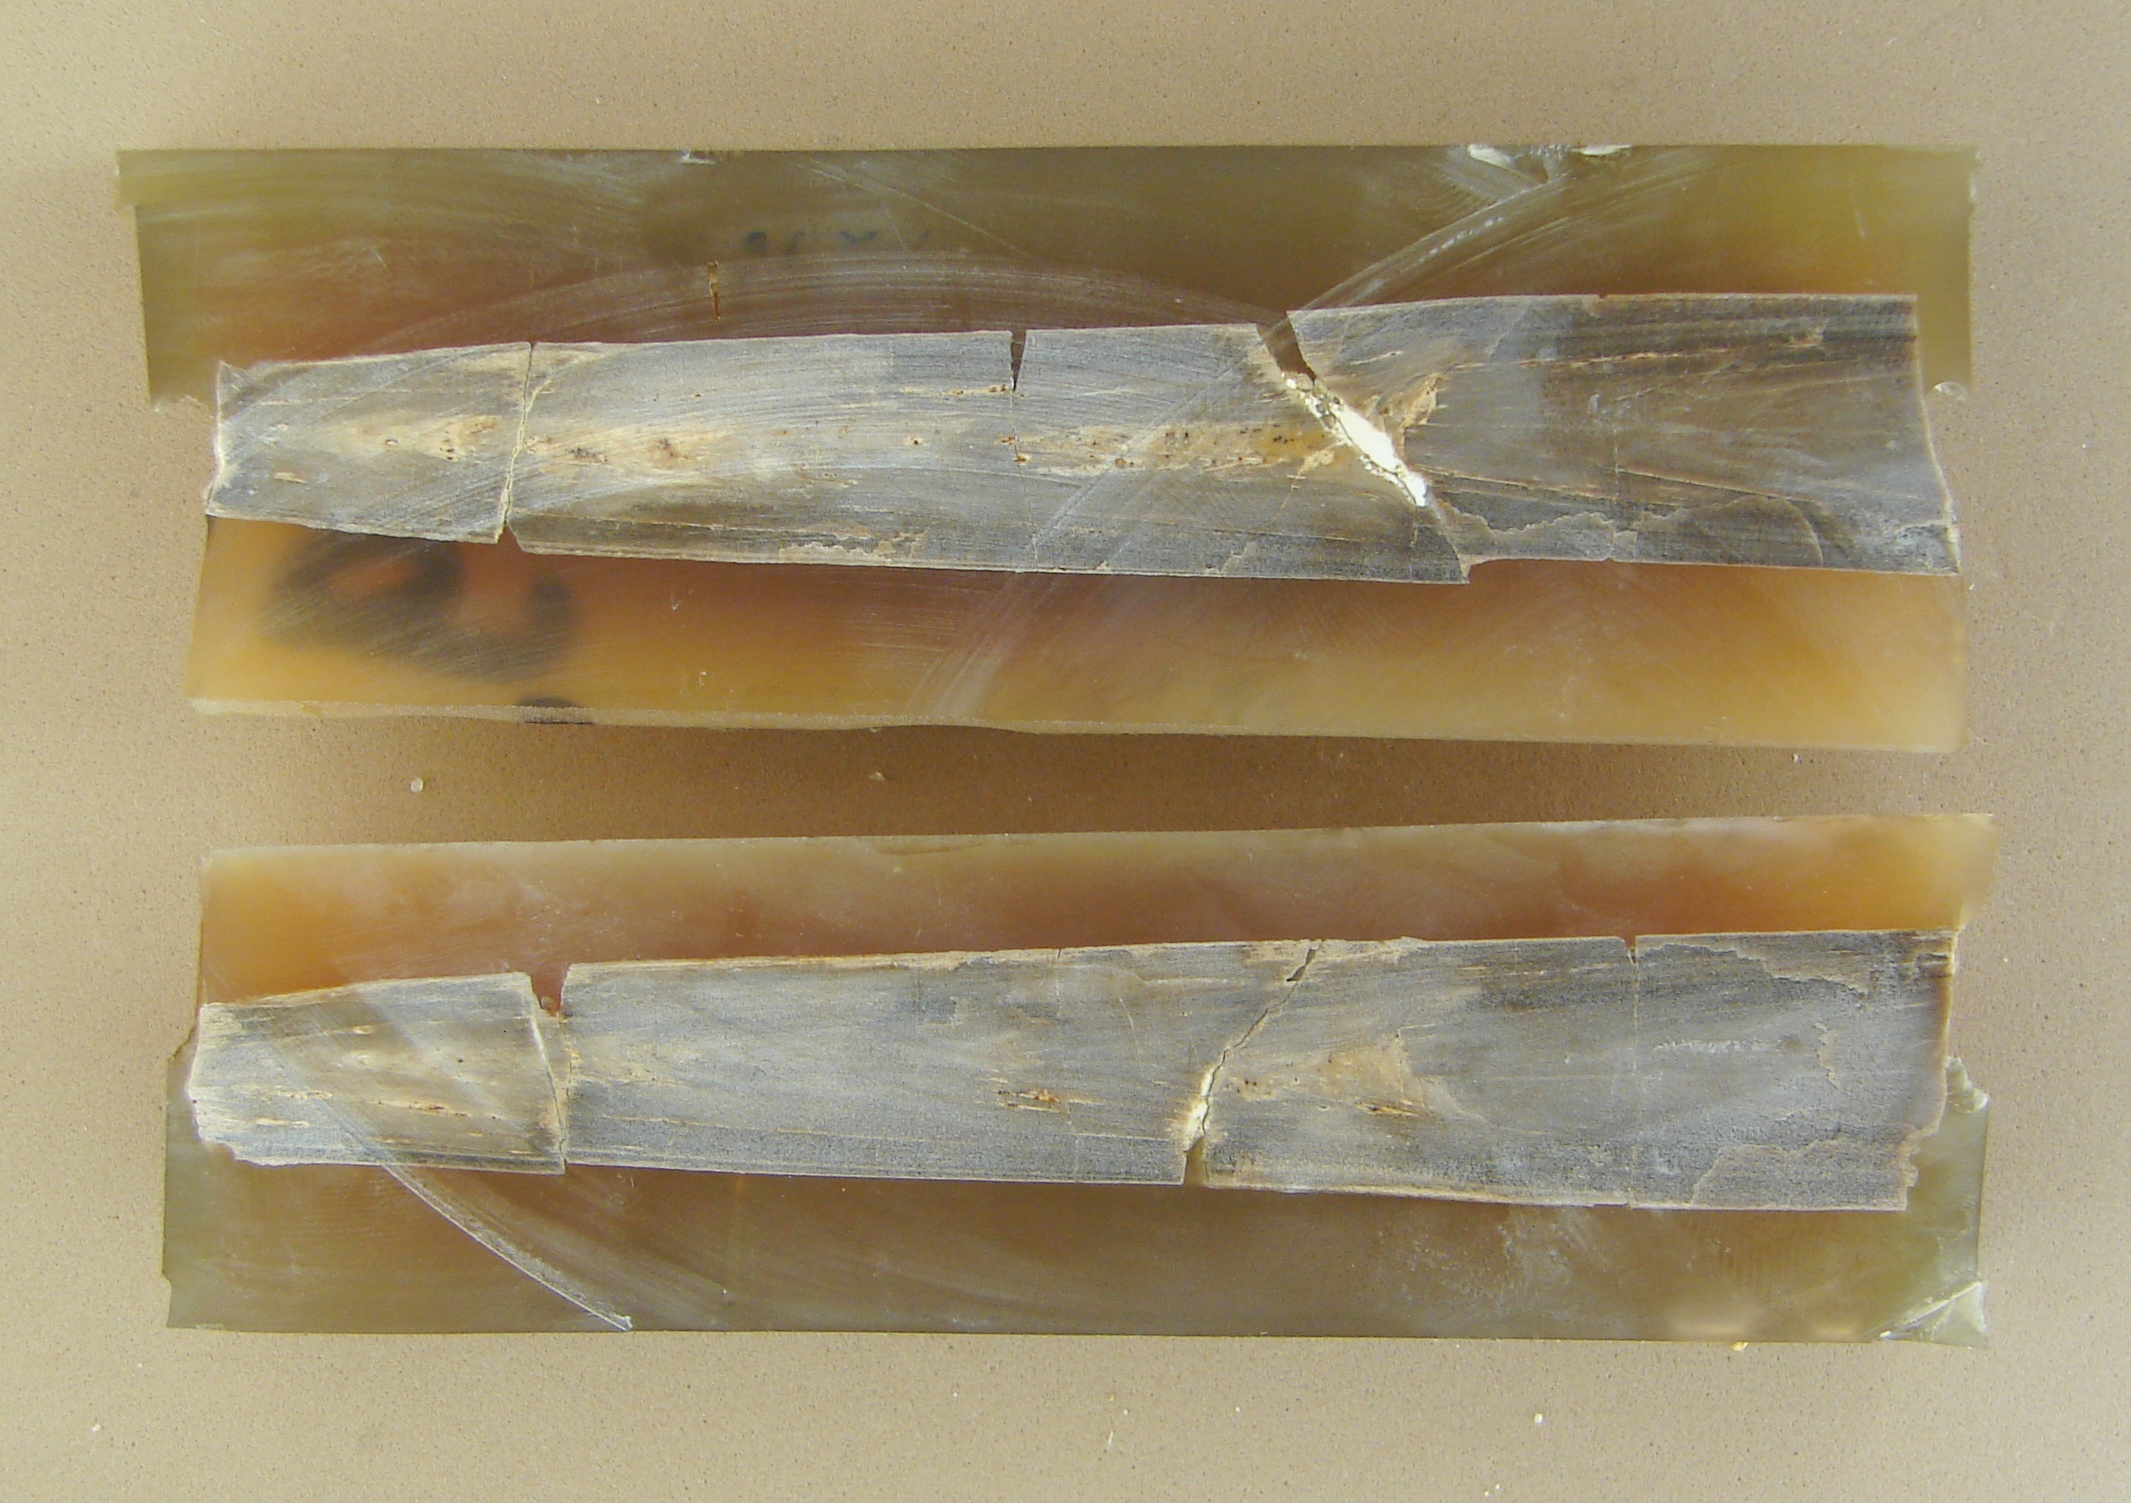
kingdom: Animalia
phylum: Mollusca
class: Cephalopoda
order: Belemnitida
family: Megateuthididae
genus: Megateuthis
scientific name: Megateuthis
